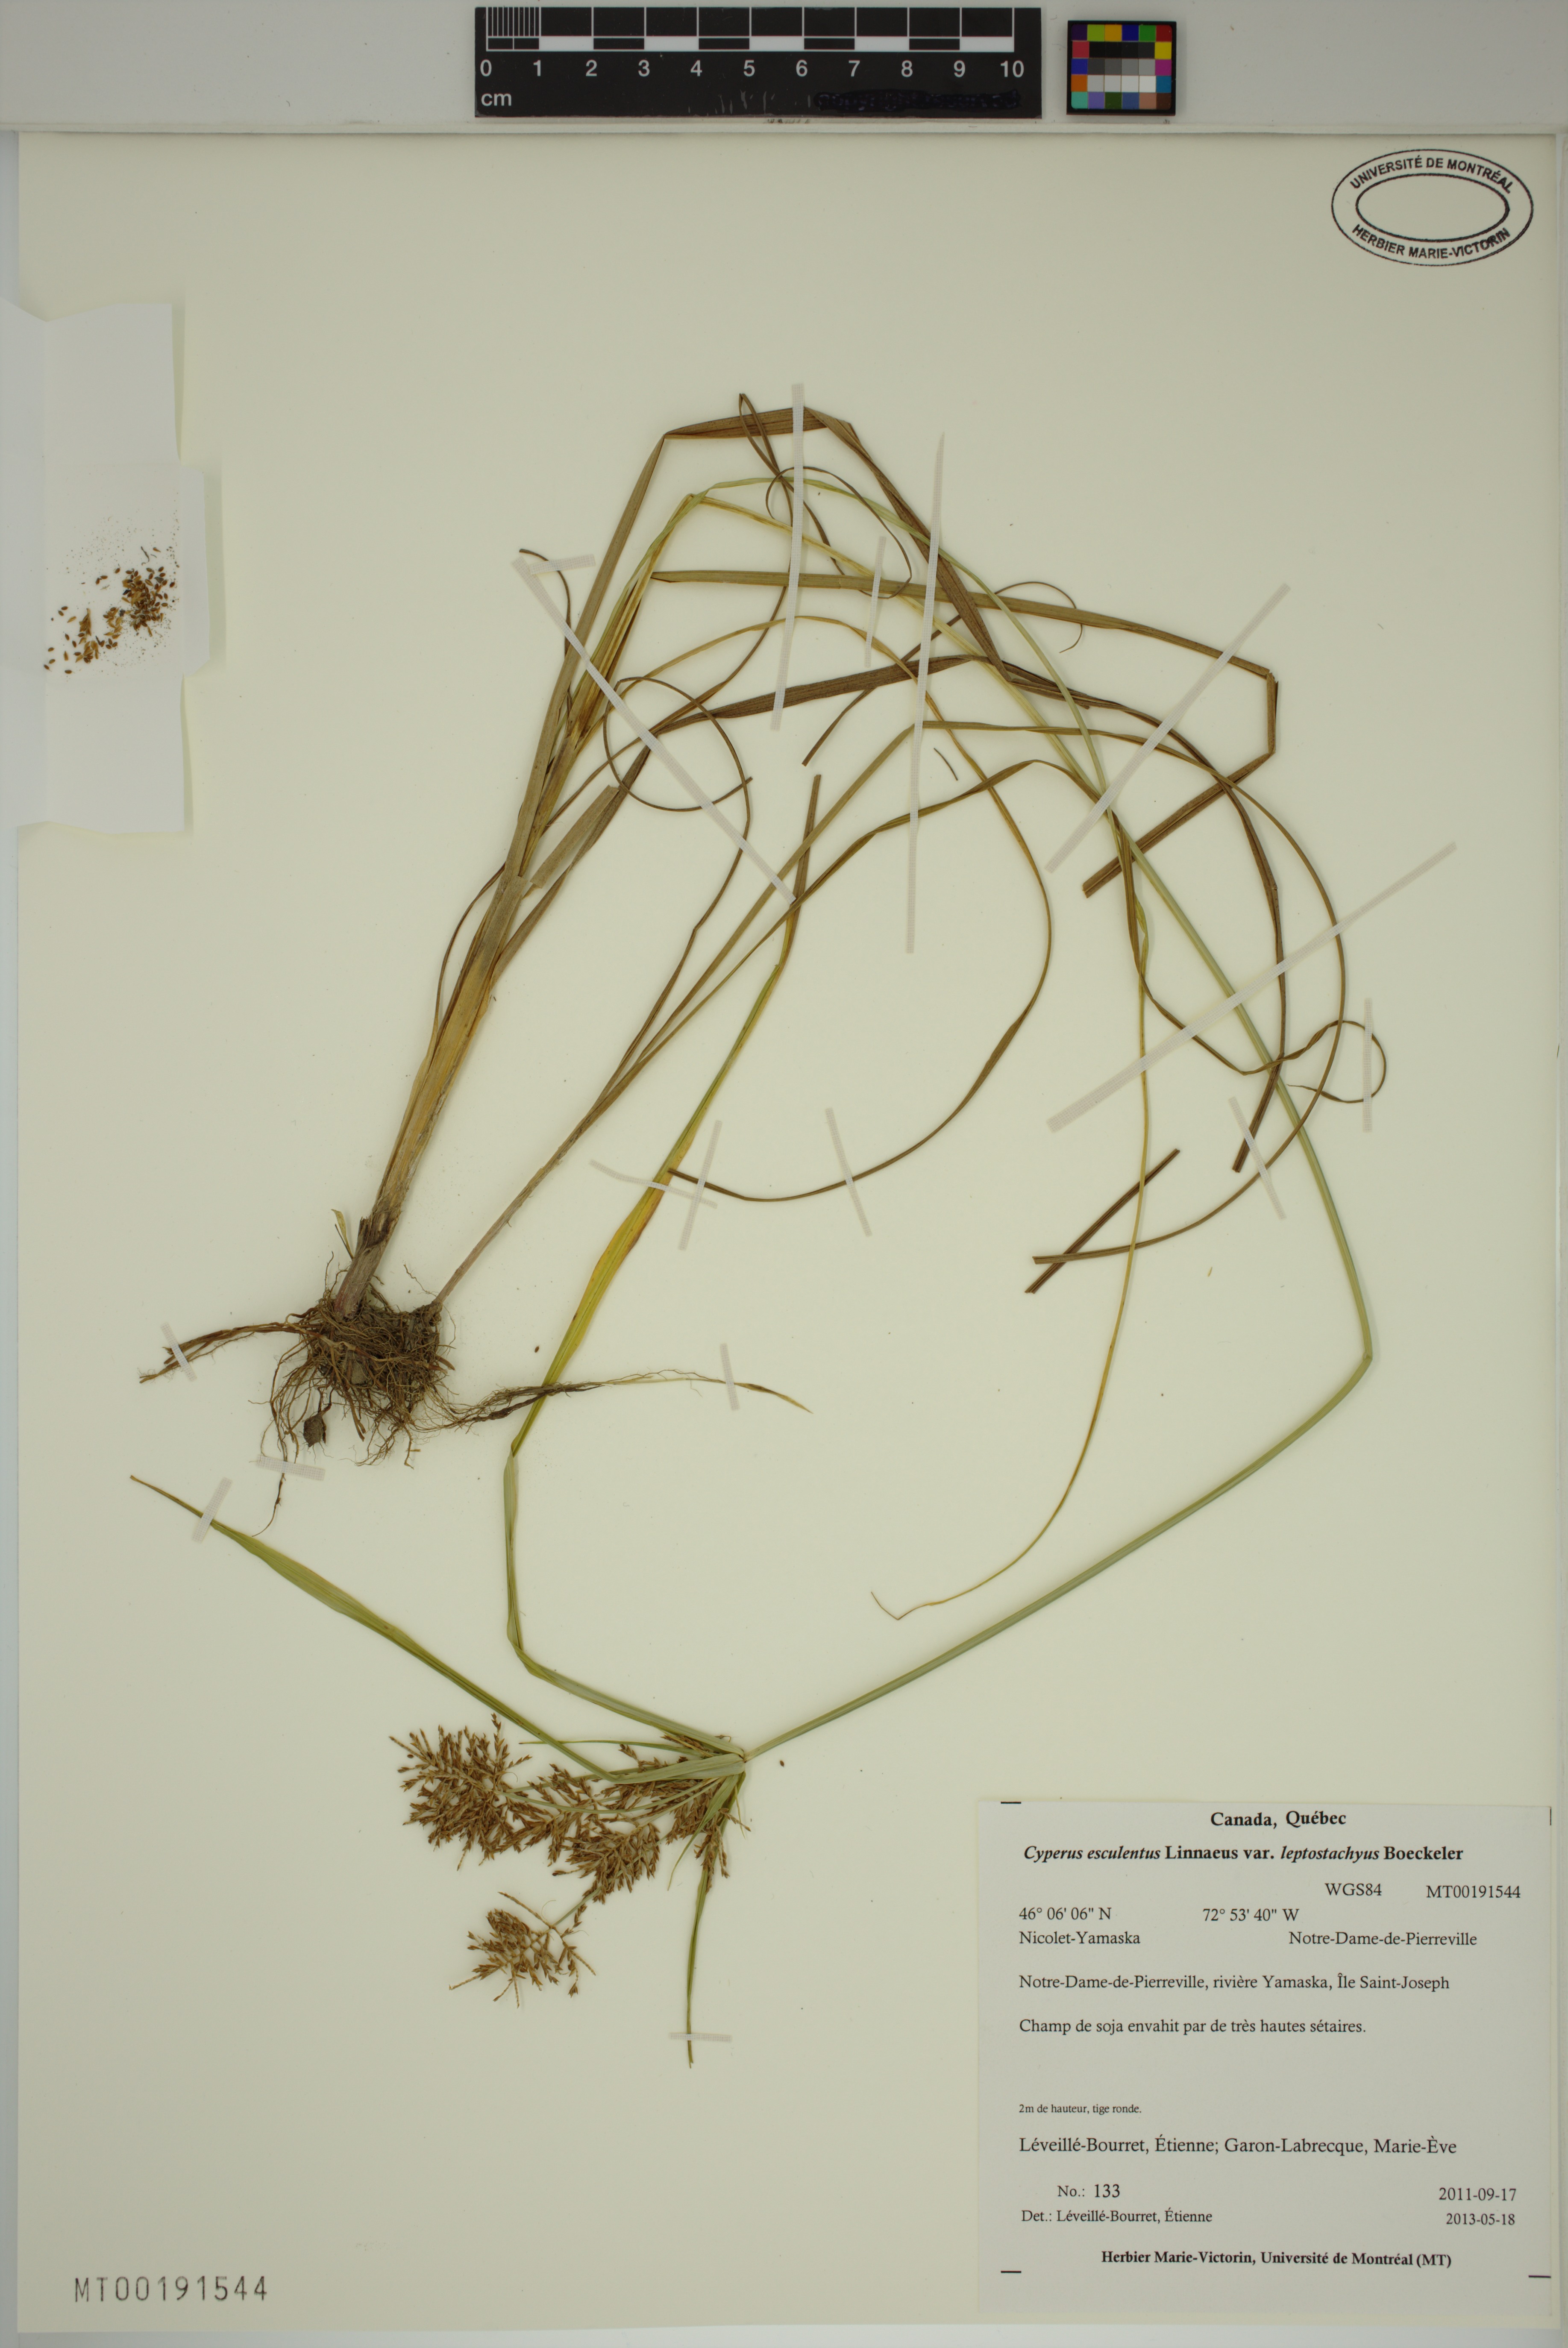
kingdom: Plantae
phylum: Tracheophyta
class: Liliopsida
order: Poales
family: Cyperaceae
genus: Cyperus
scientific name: Cyperus esculentus
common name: Yellow nutsedge
